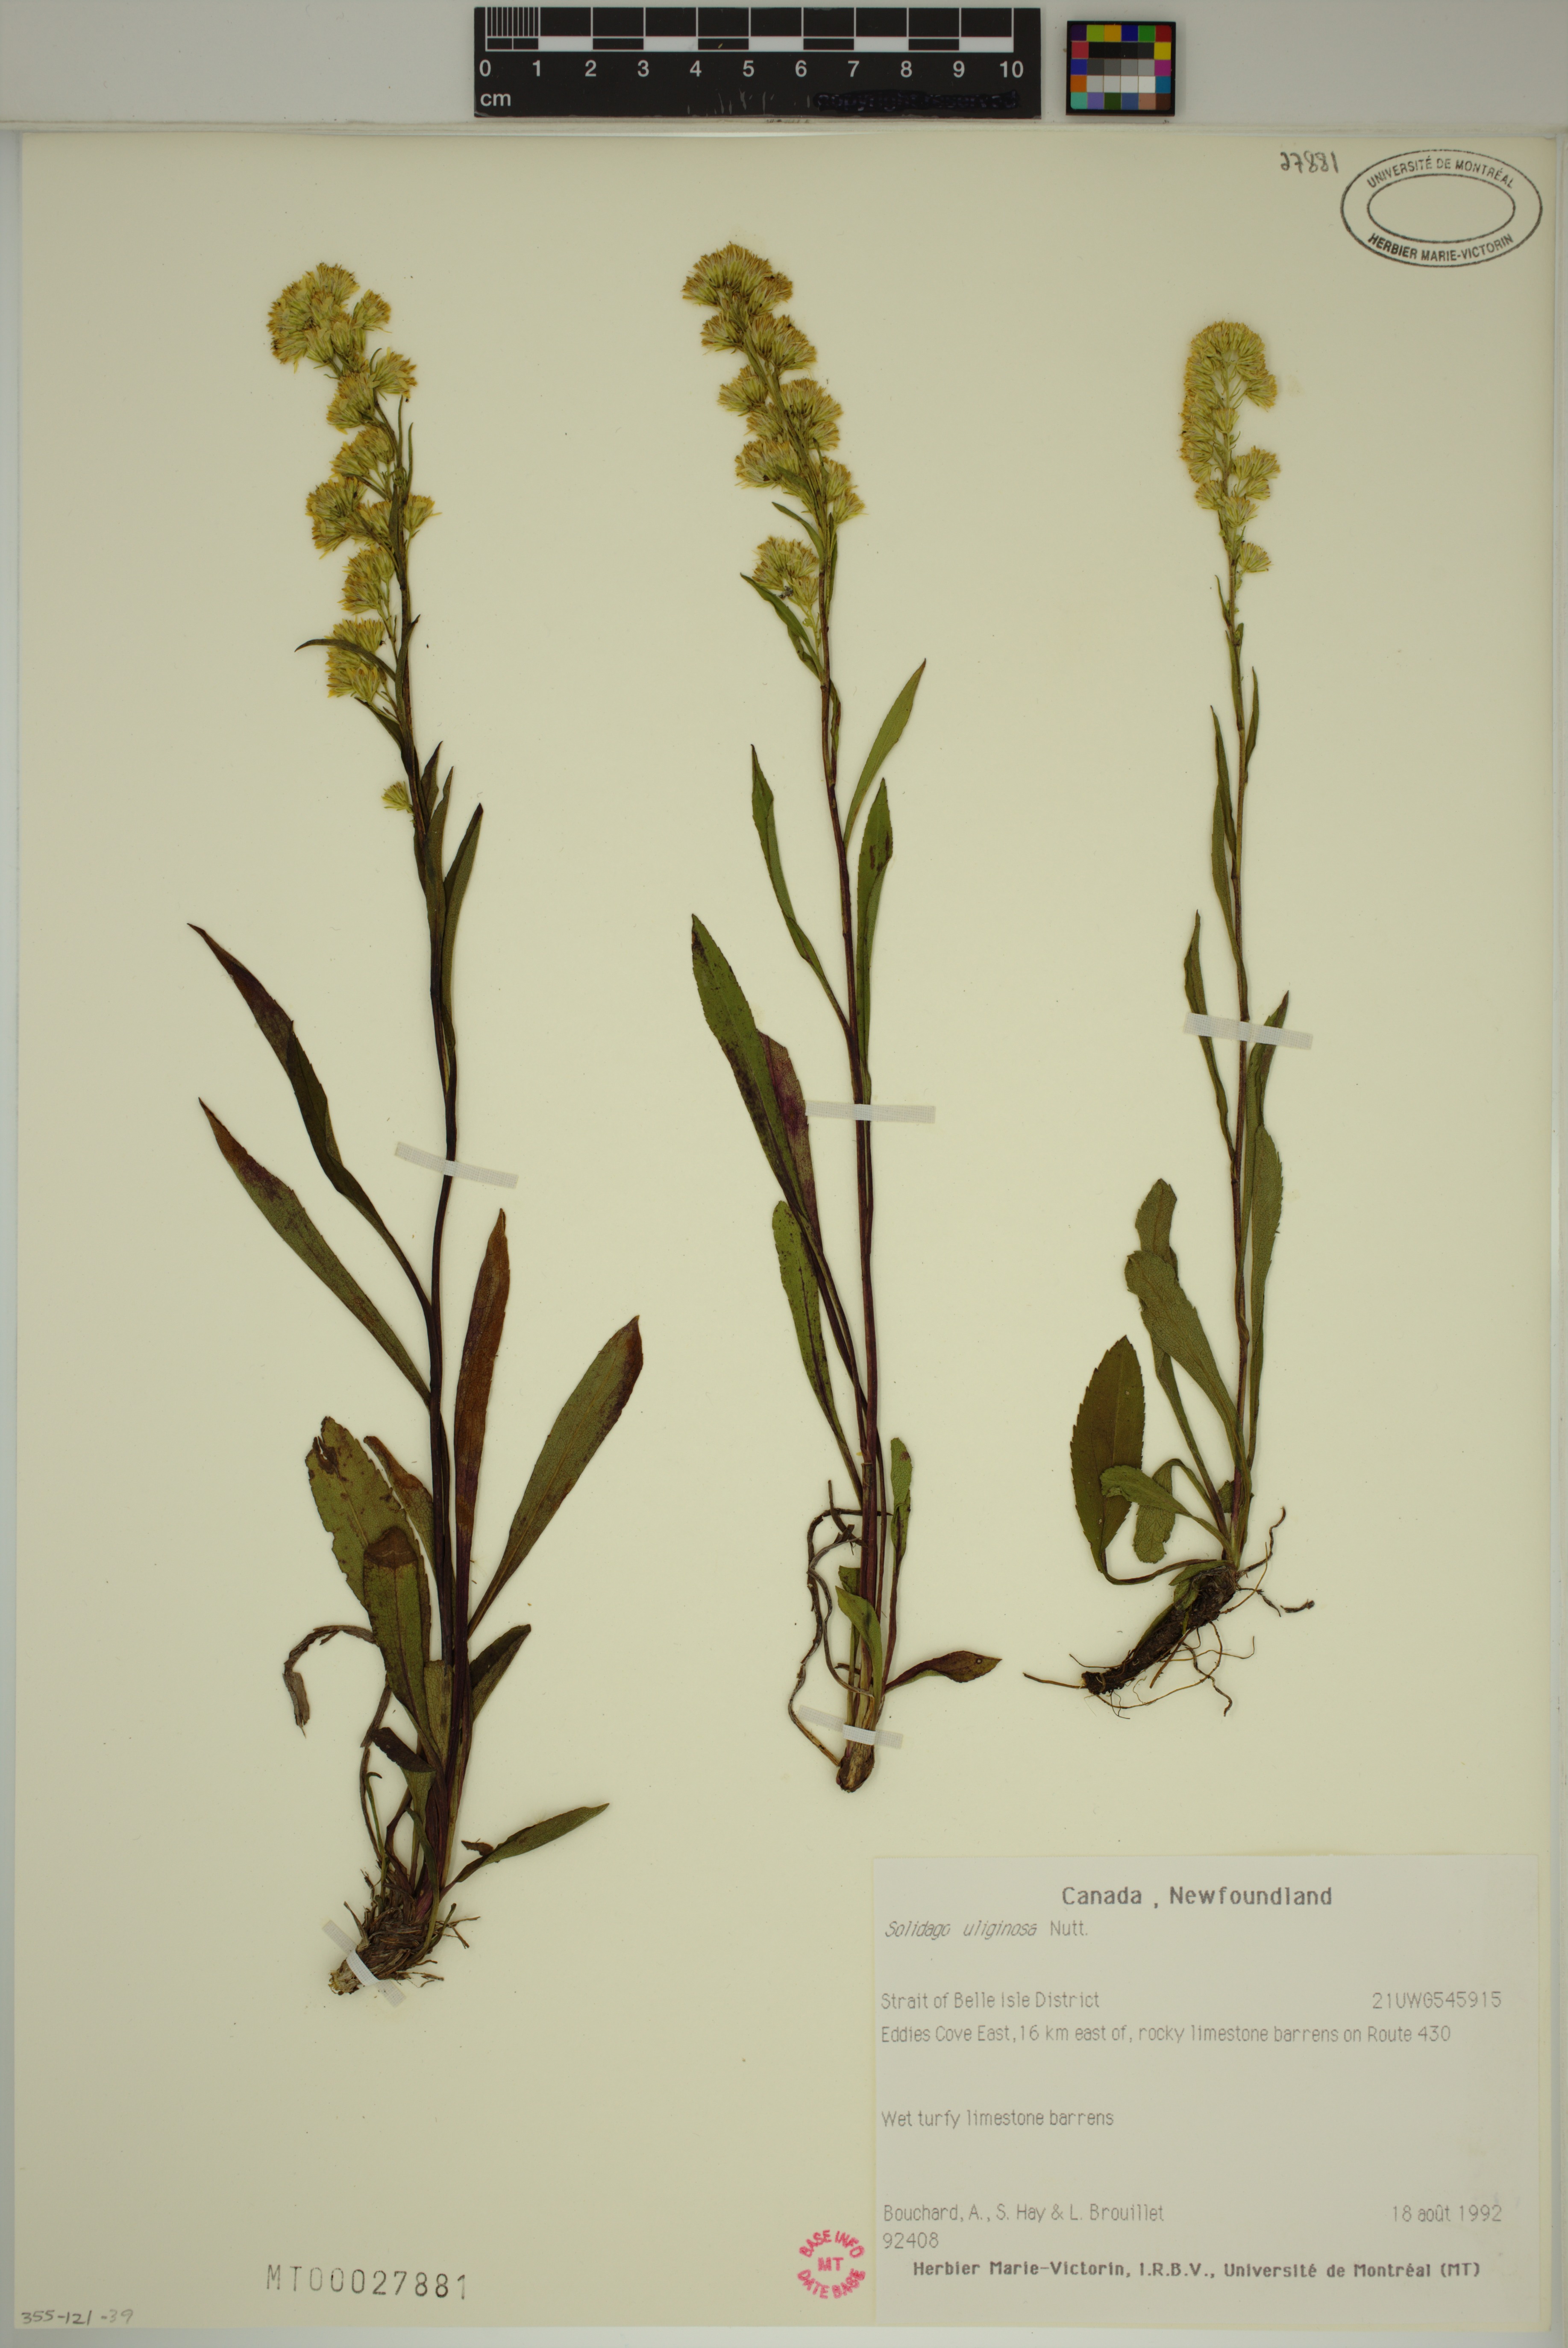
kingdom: Plantae
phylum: Tracheophyta
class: Magnoliopsida
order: Asterales
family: Asteraceae
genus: Solidago
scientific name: Solidago uliginosa
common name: Bog goldenrod
